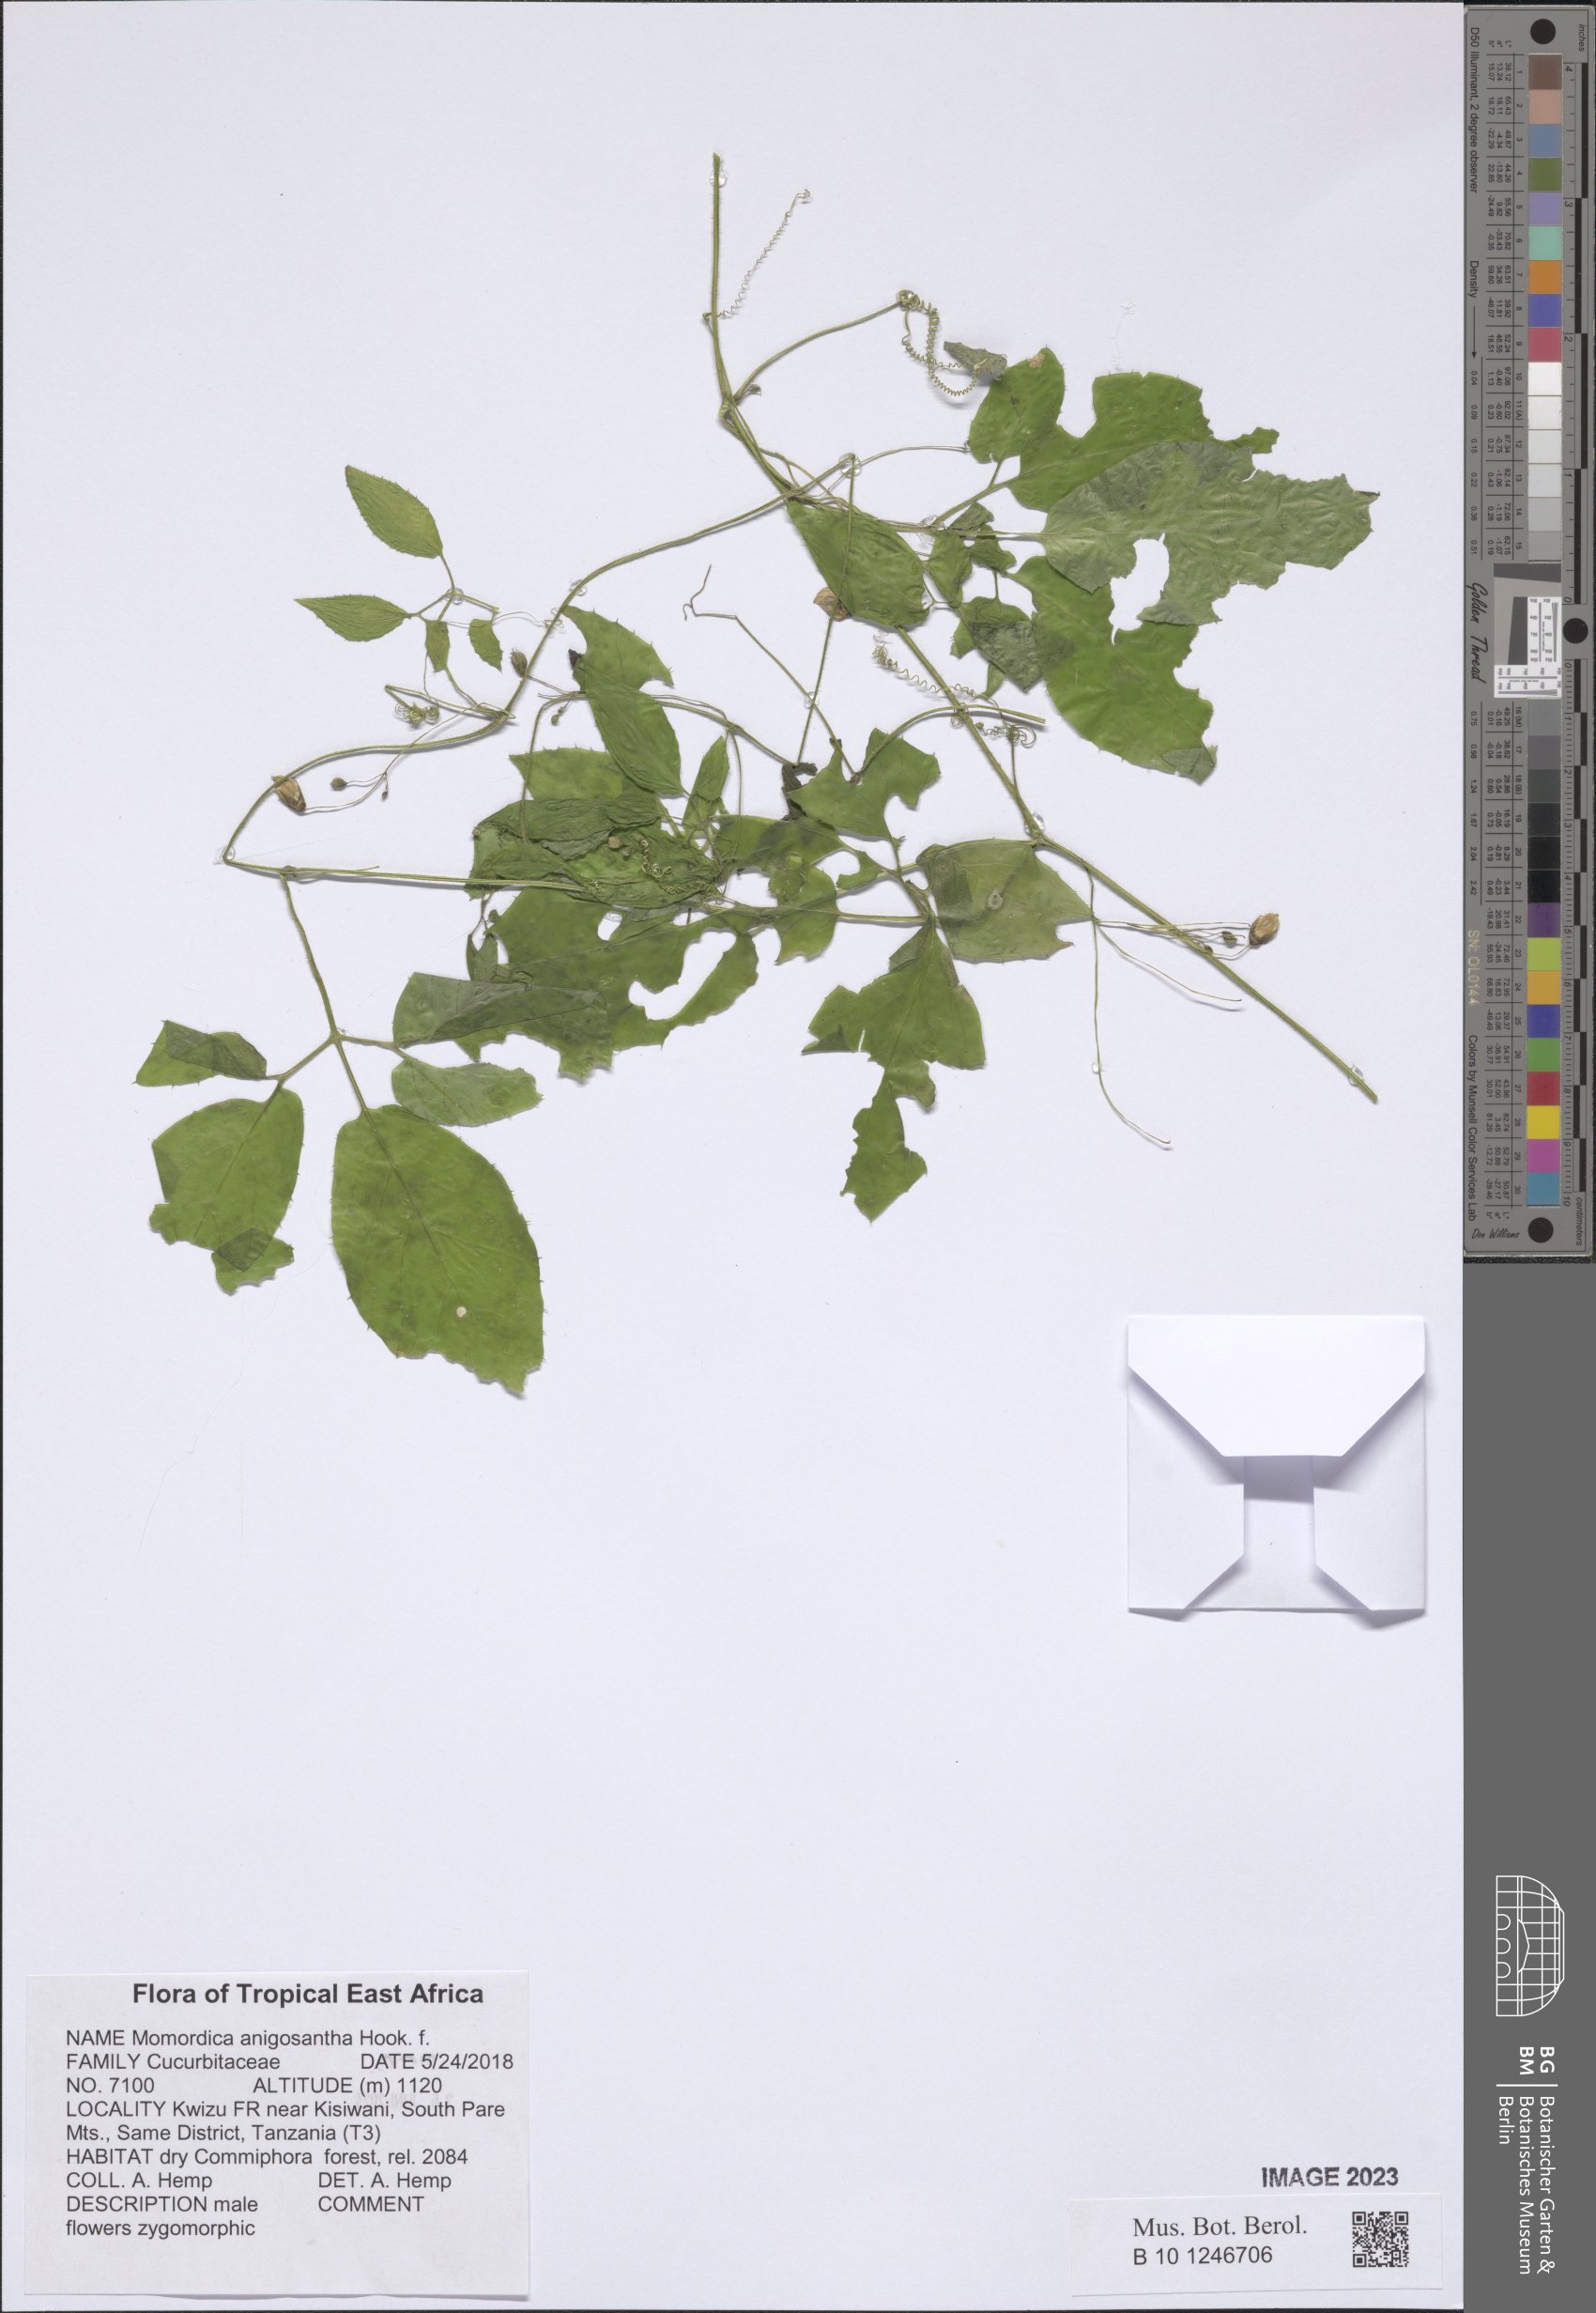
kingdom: Plantae
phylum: Tracheophyta
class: Magnoliopsida
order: Cucurbitales
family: Cucurbitaceae
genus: Momordica
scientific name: Momordica anigosantha
